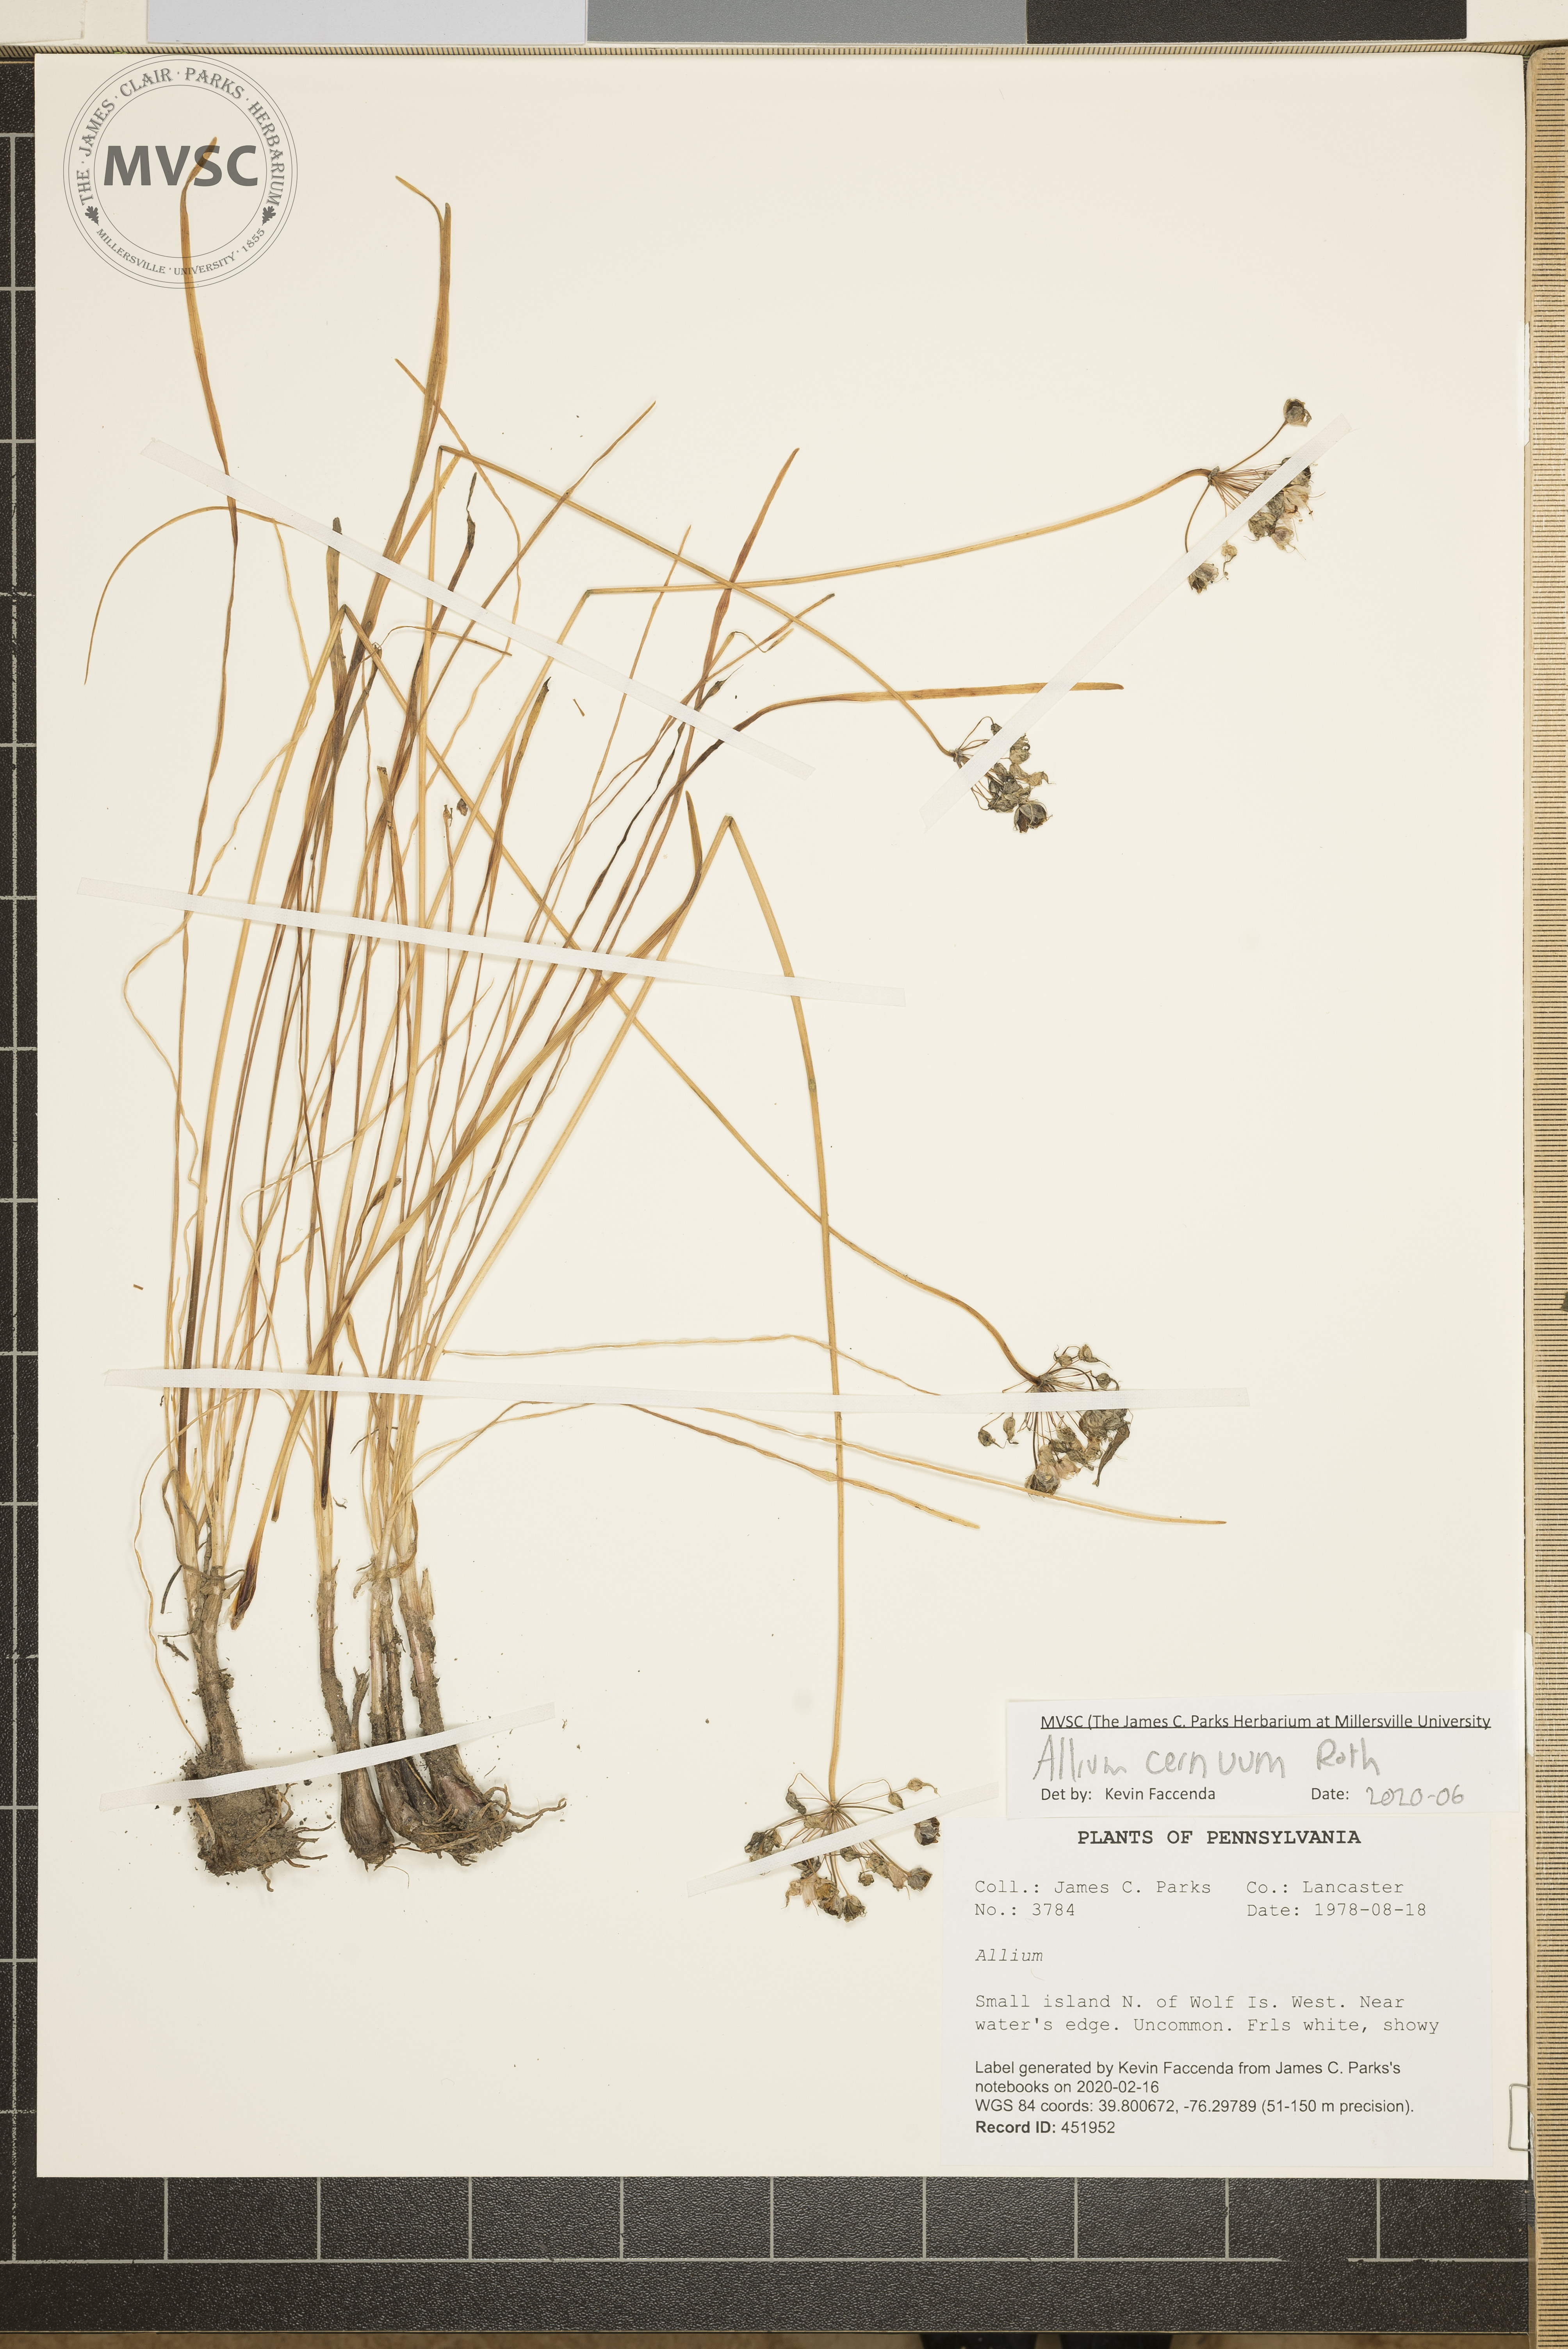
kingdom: Plantae
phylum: Tracheophyta
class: Liliopsida
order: Asparagales
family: Amaryllidaceae
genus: Allium
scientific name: Allium cernuum
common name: Nodding onion
